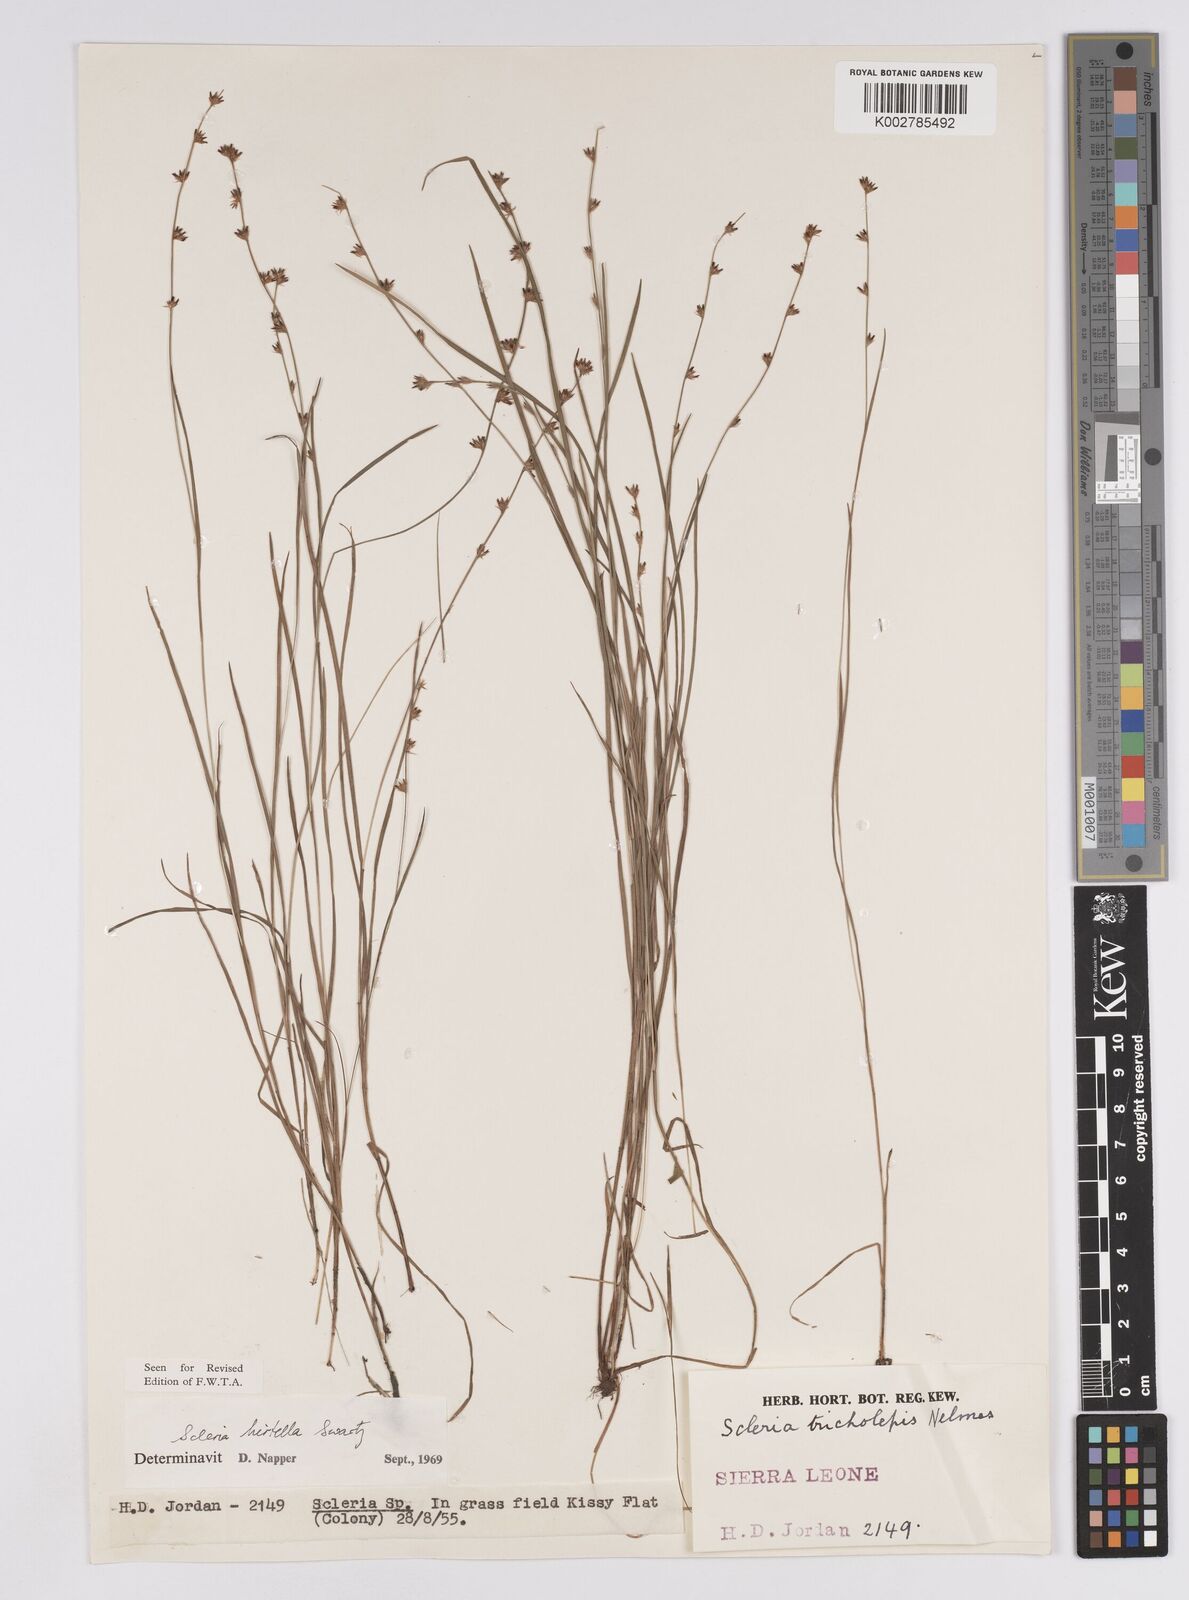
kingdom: Plantae
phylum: Tracheophyta
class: Liliopsida
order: Poales
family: Cyperaceae
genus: Scleria
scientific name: Scleria tricholepis
